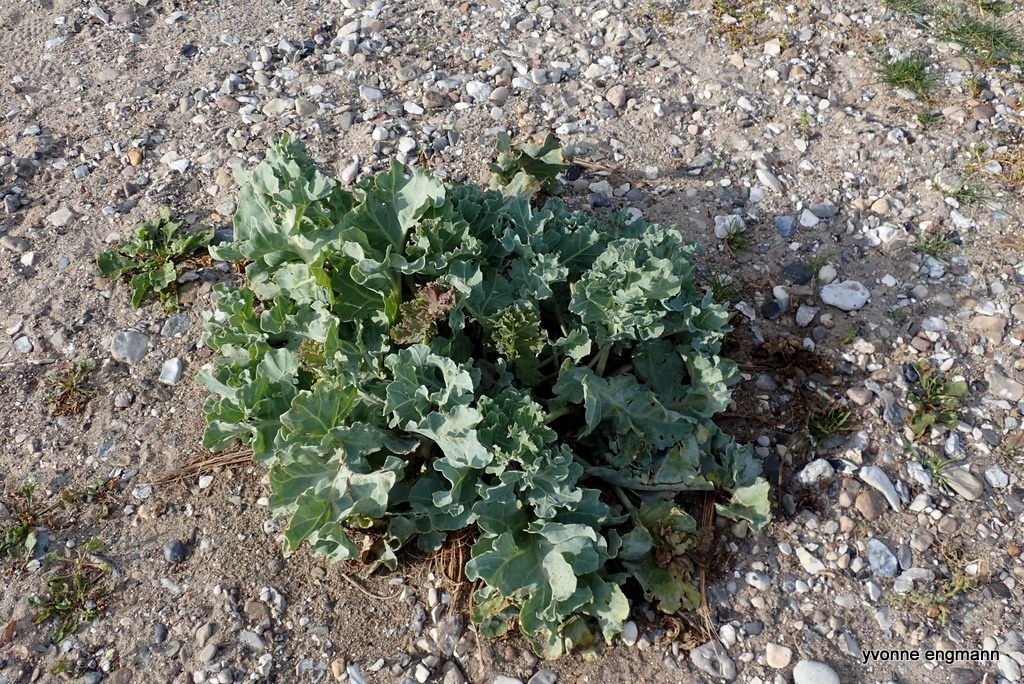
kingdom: Plantae
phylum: Tracheophyta
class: Magnoliopsida
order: Brassicales
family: Brassicaceae
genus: Crambe
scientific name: Crambe maritima
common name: Strandkål
